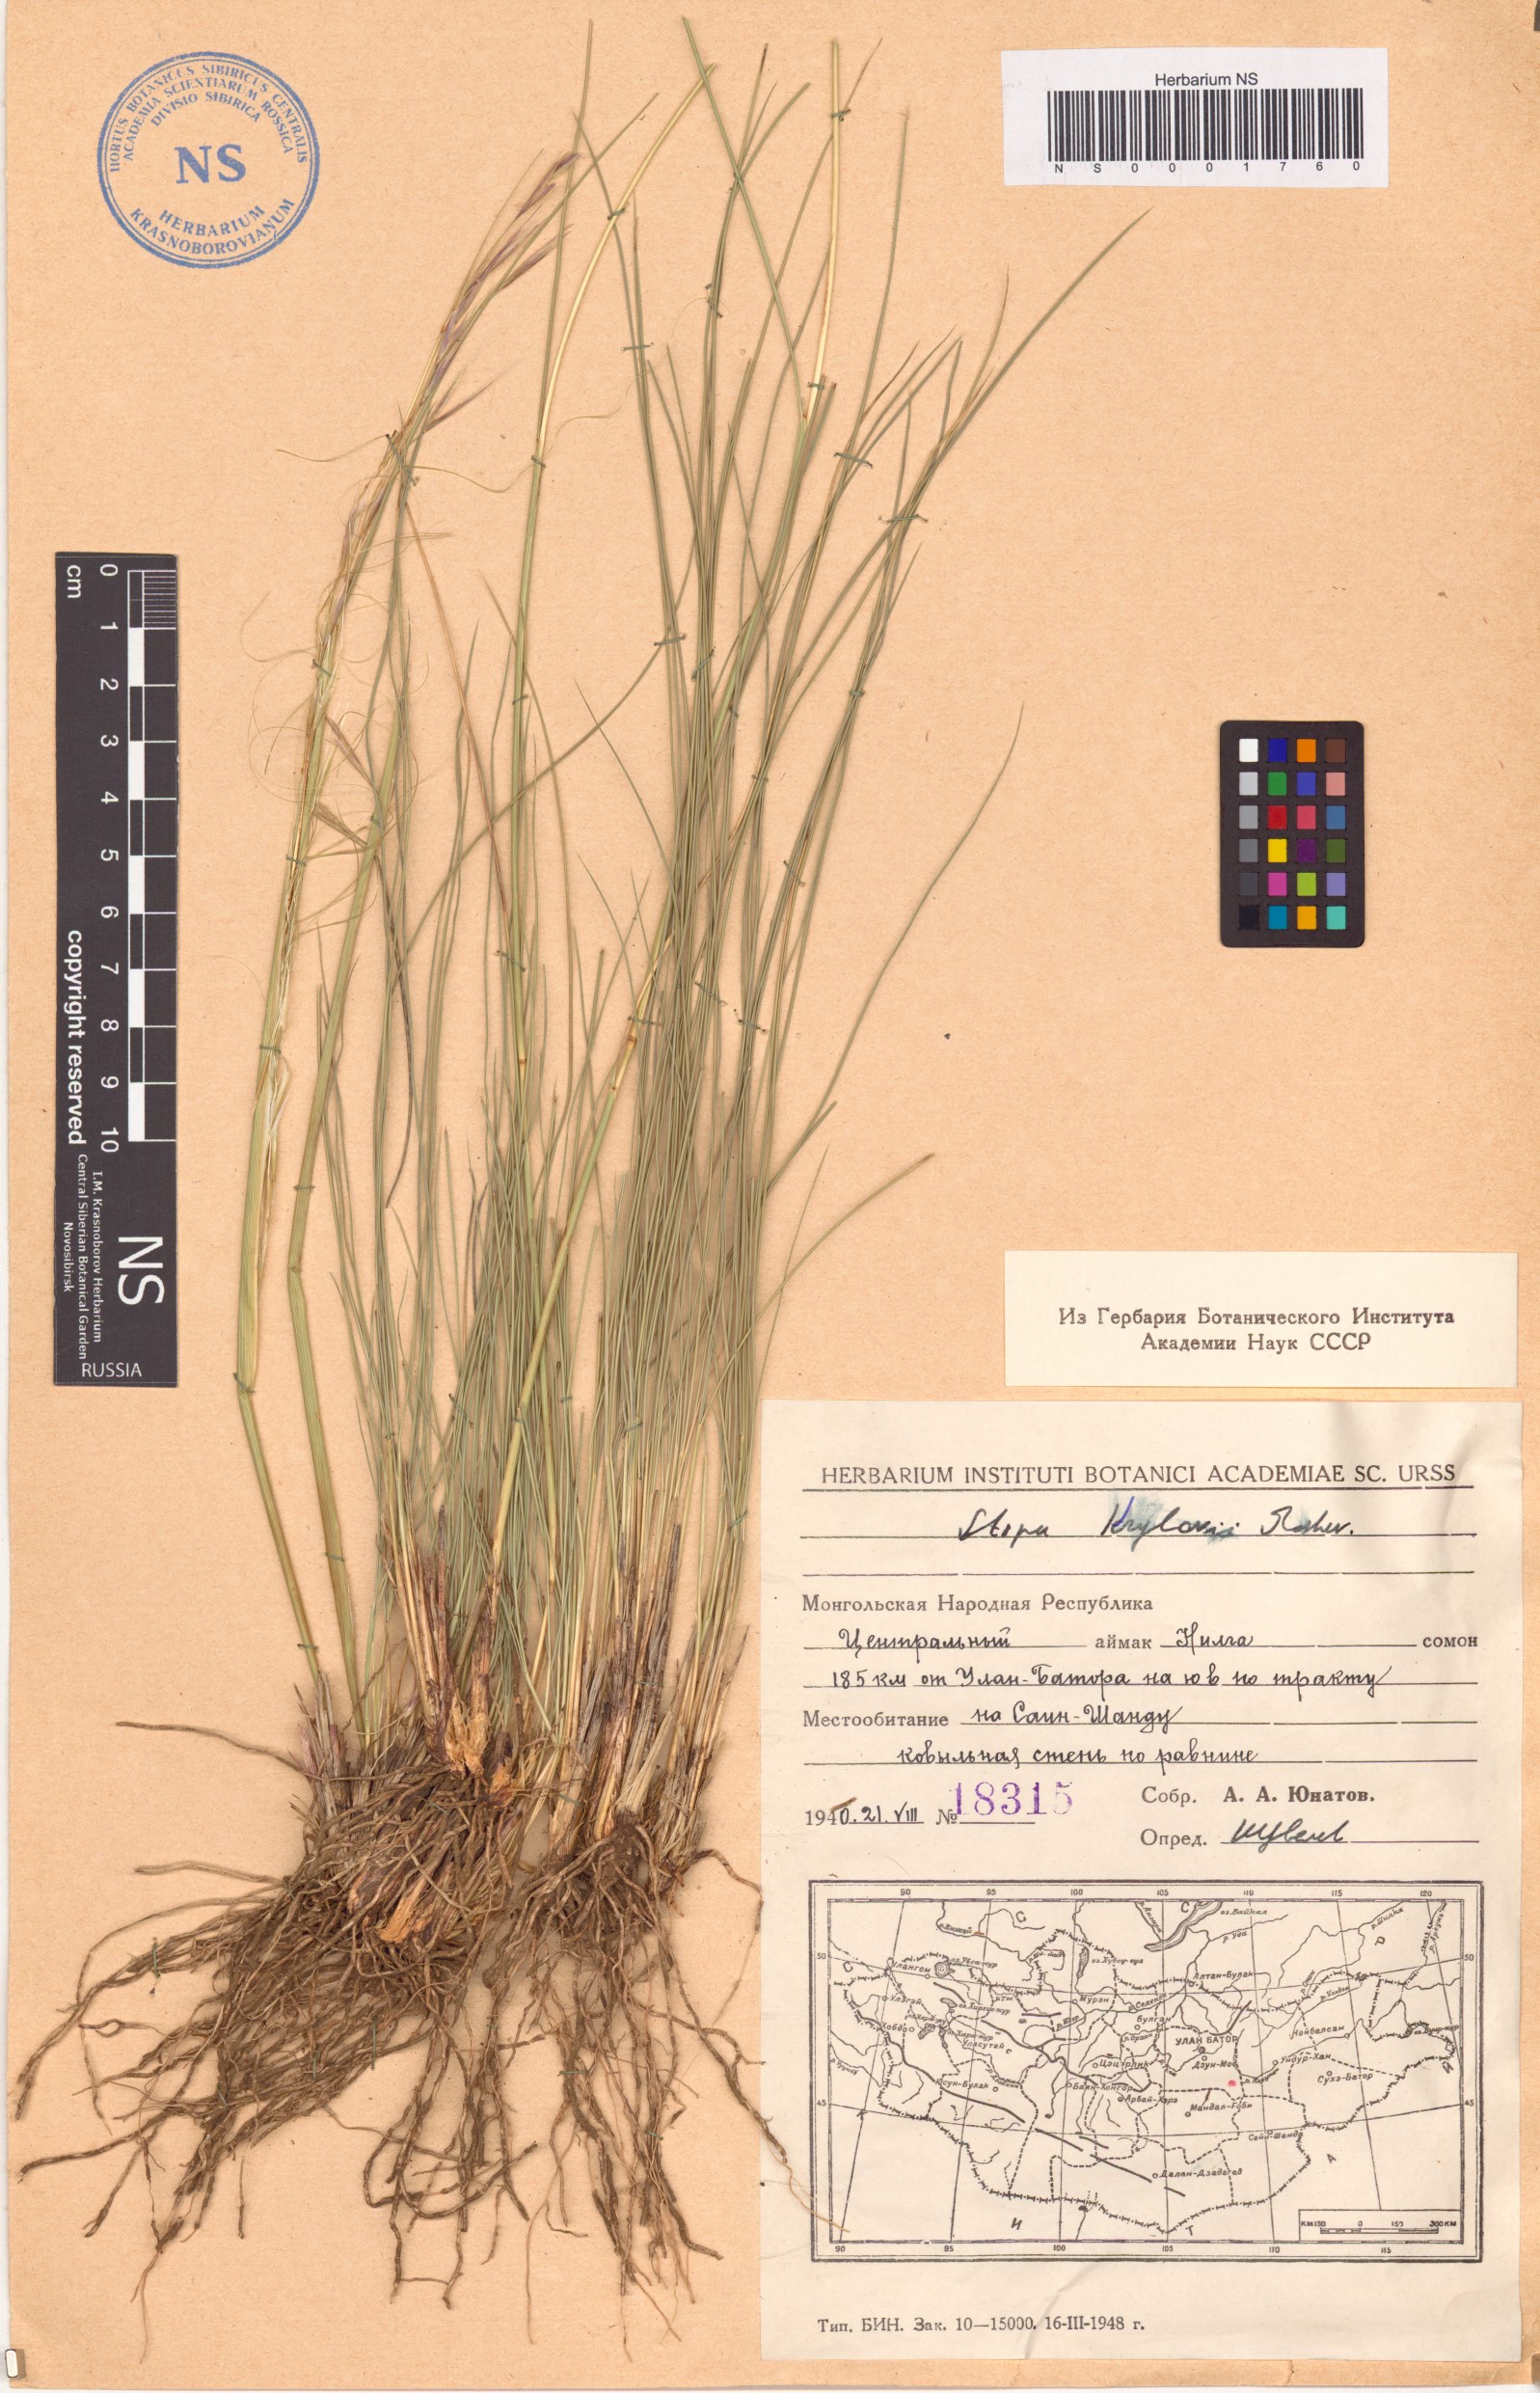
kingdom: Plantae
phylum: Tracheophyta
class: Liliopsida
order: Poales
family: Poaceae
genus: Stipa
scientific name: Stipa krylovii
